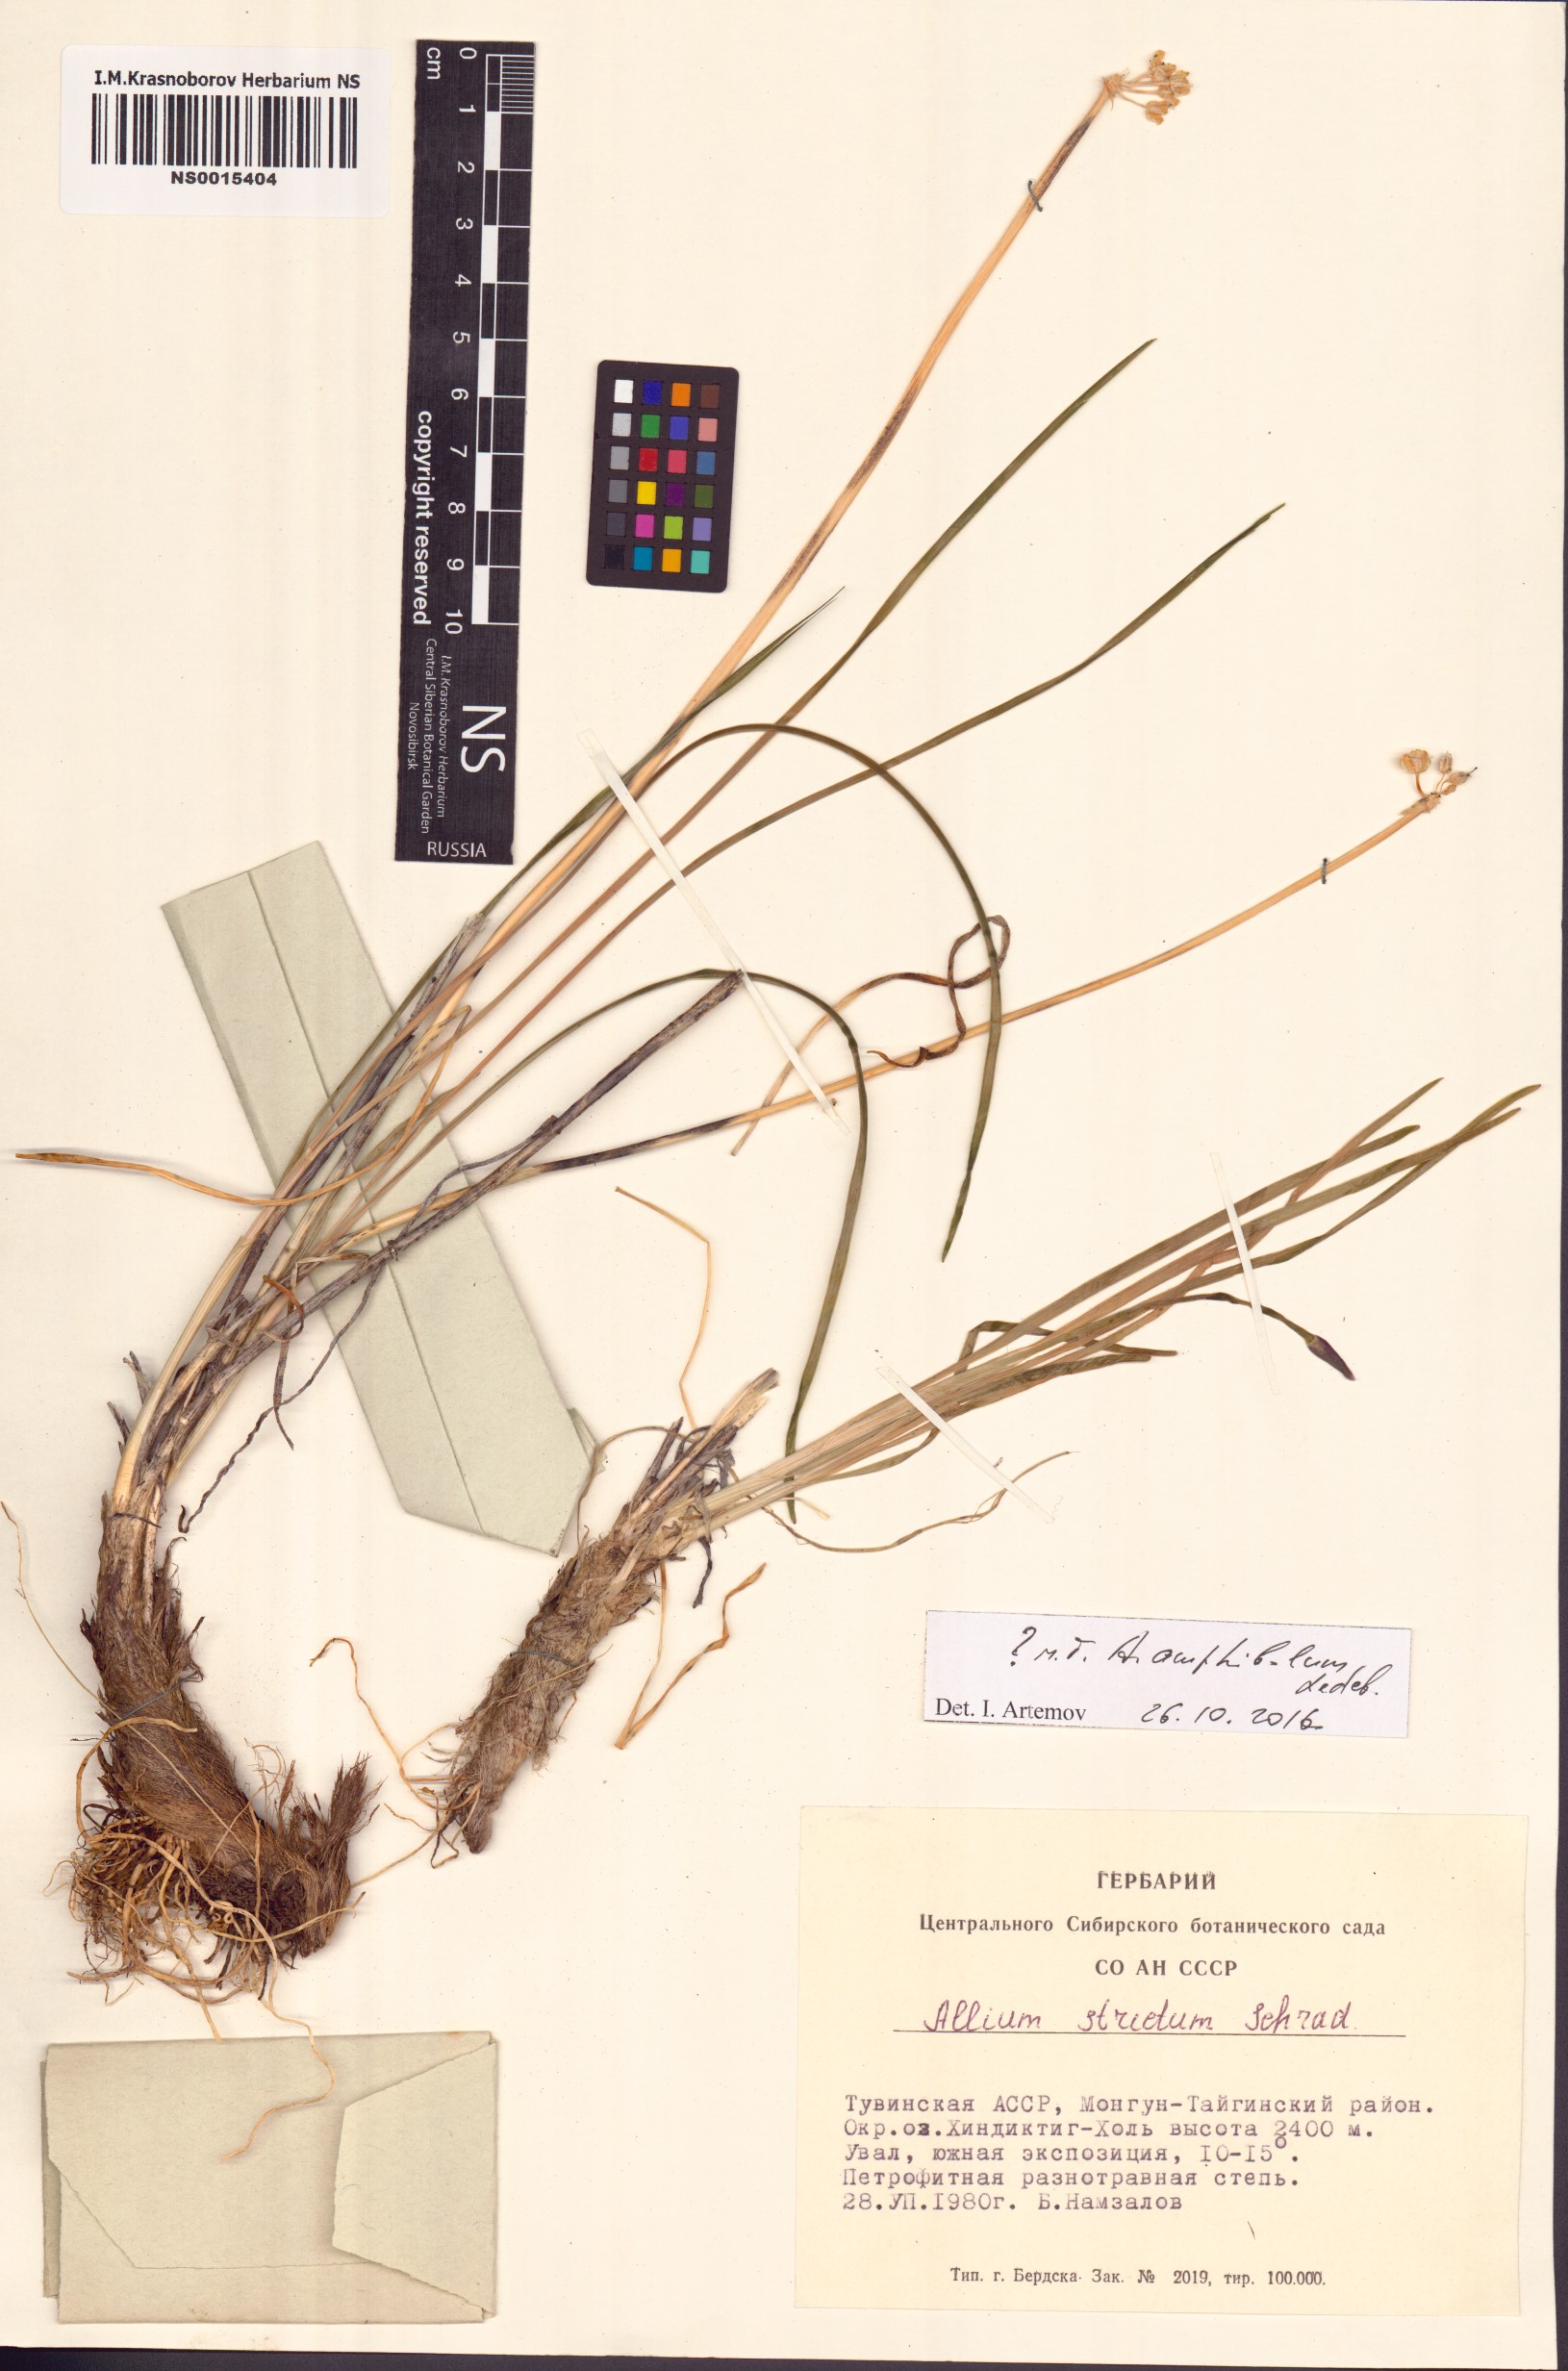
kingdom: Plantae
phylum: Tracheophyta
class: Liliopsida
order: Asparagales
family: Amaryllidaceae
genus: Allium
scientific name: Allium strictum
